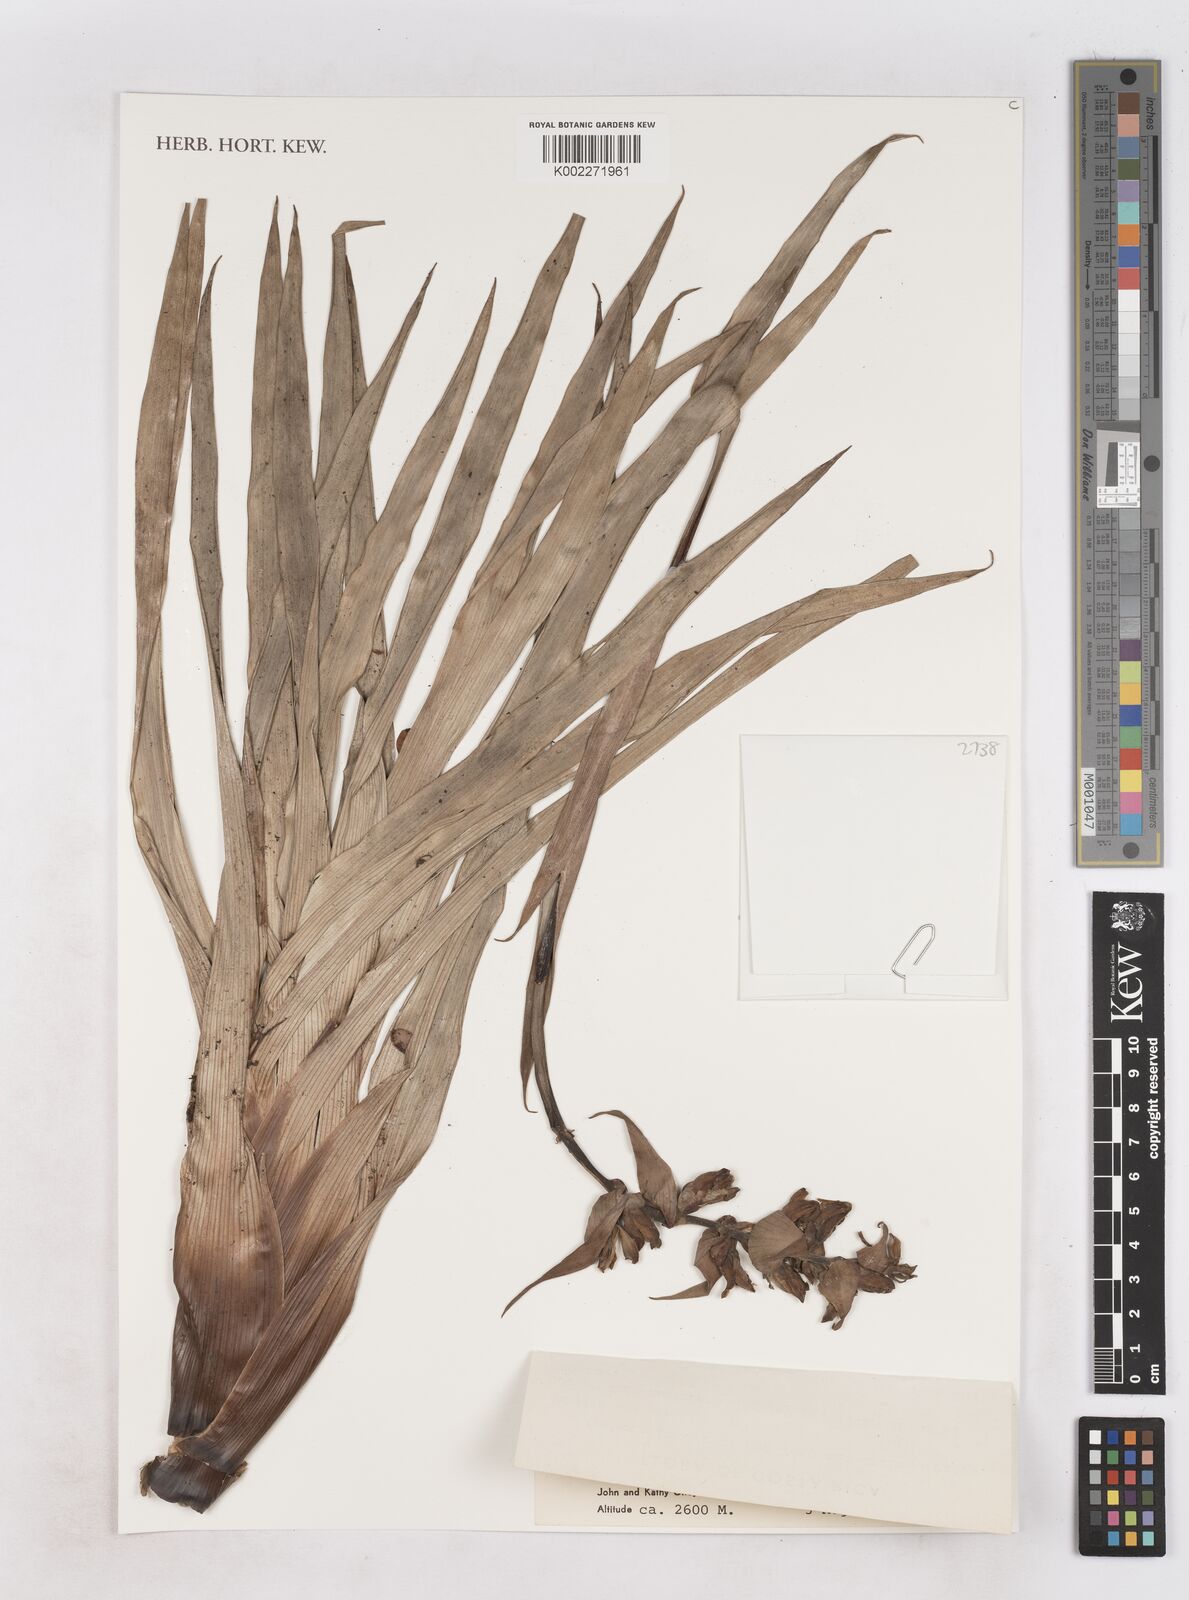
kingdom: Plantae
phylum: Tracheophyta
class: Liliopsida
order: Poales
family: Bromeliaceae
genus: Werauhia
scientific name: Werauhia williamsii
